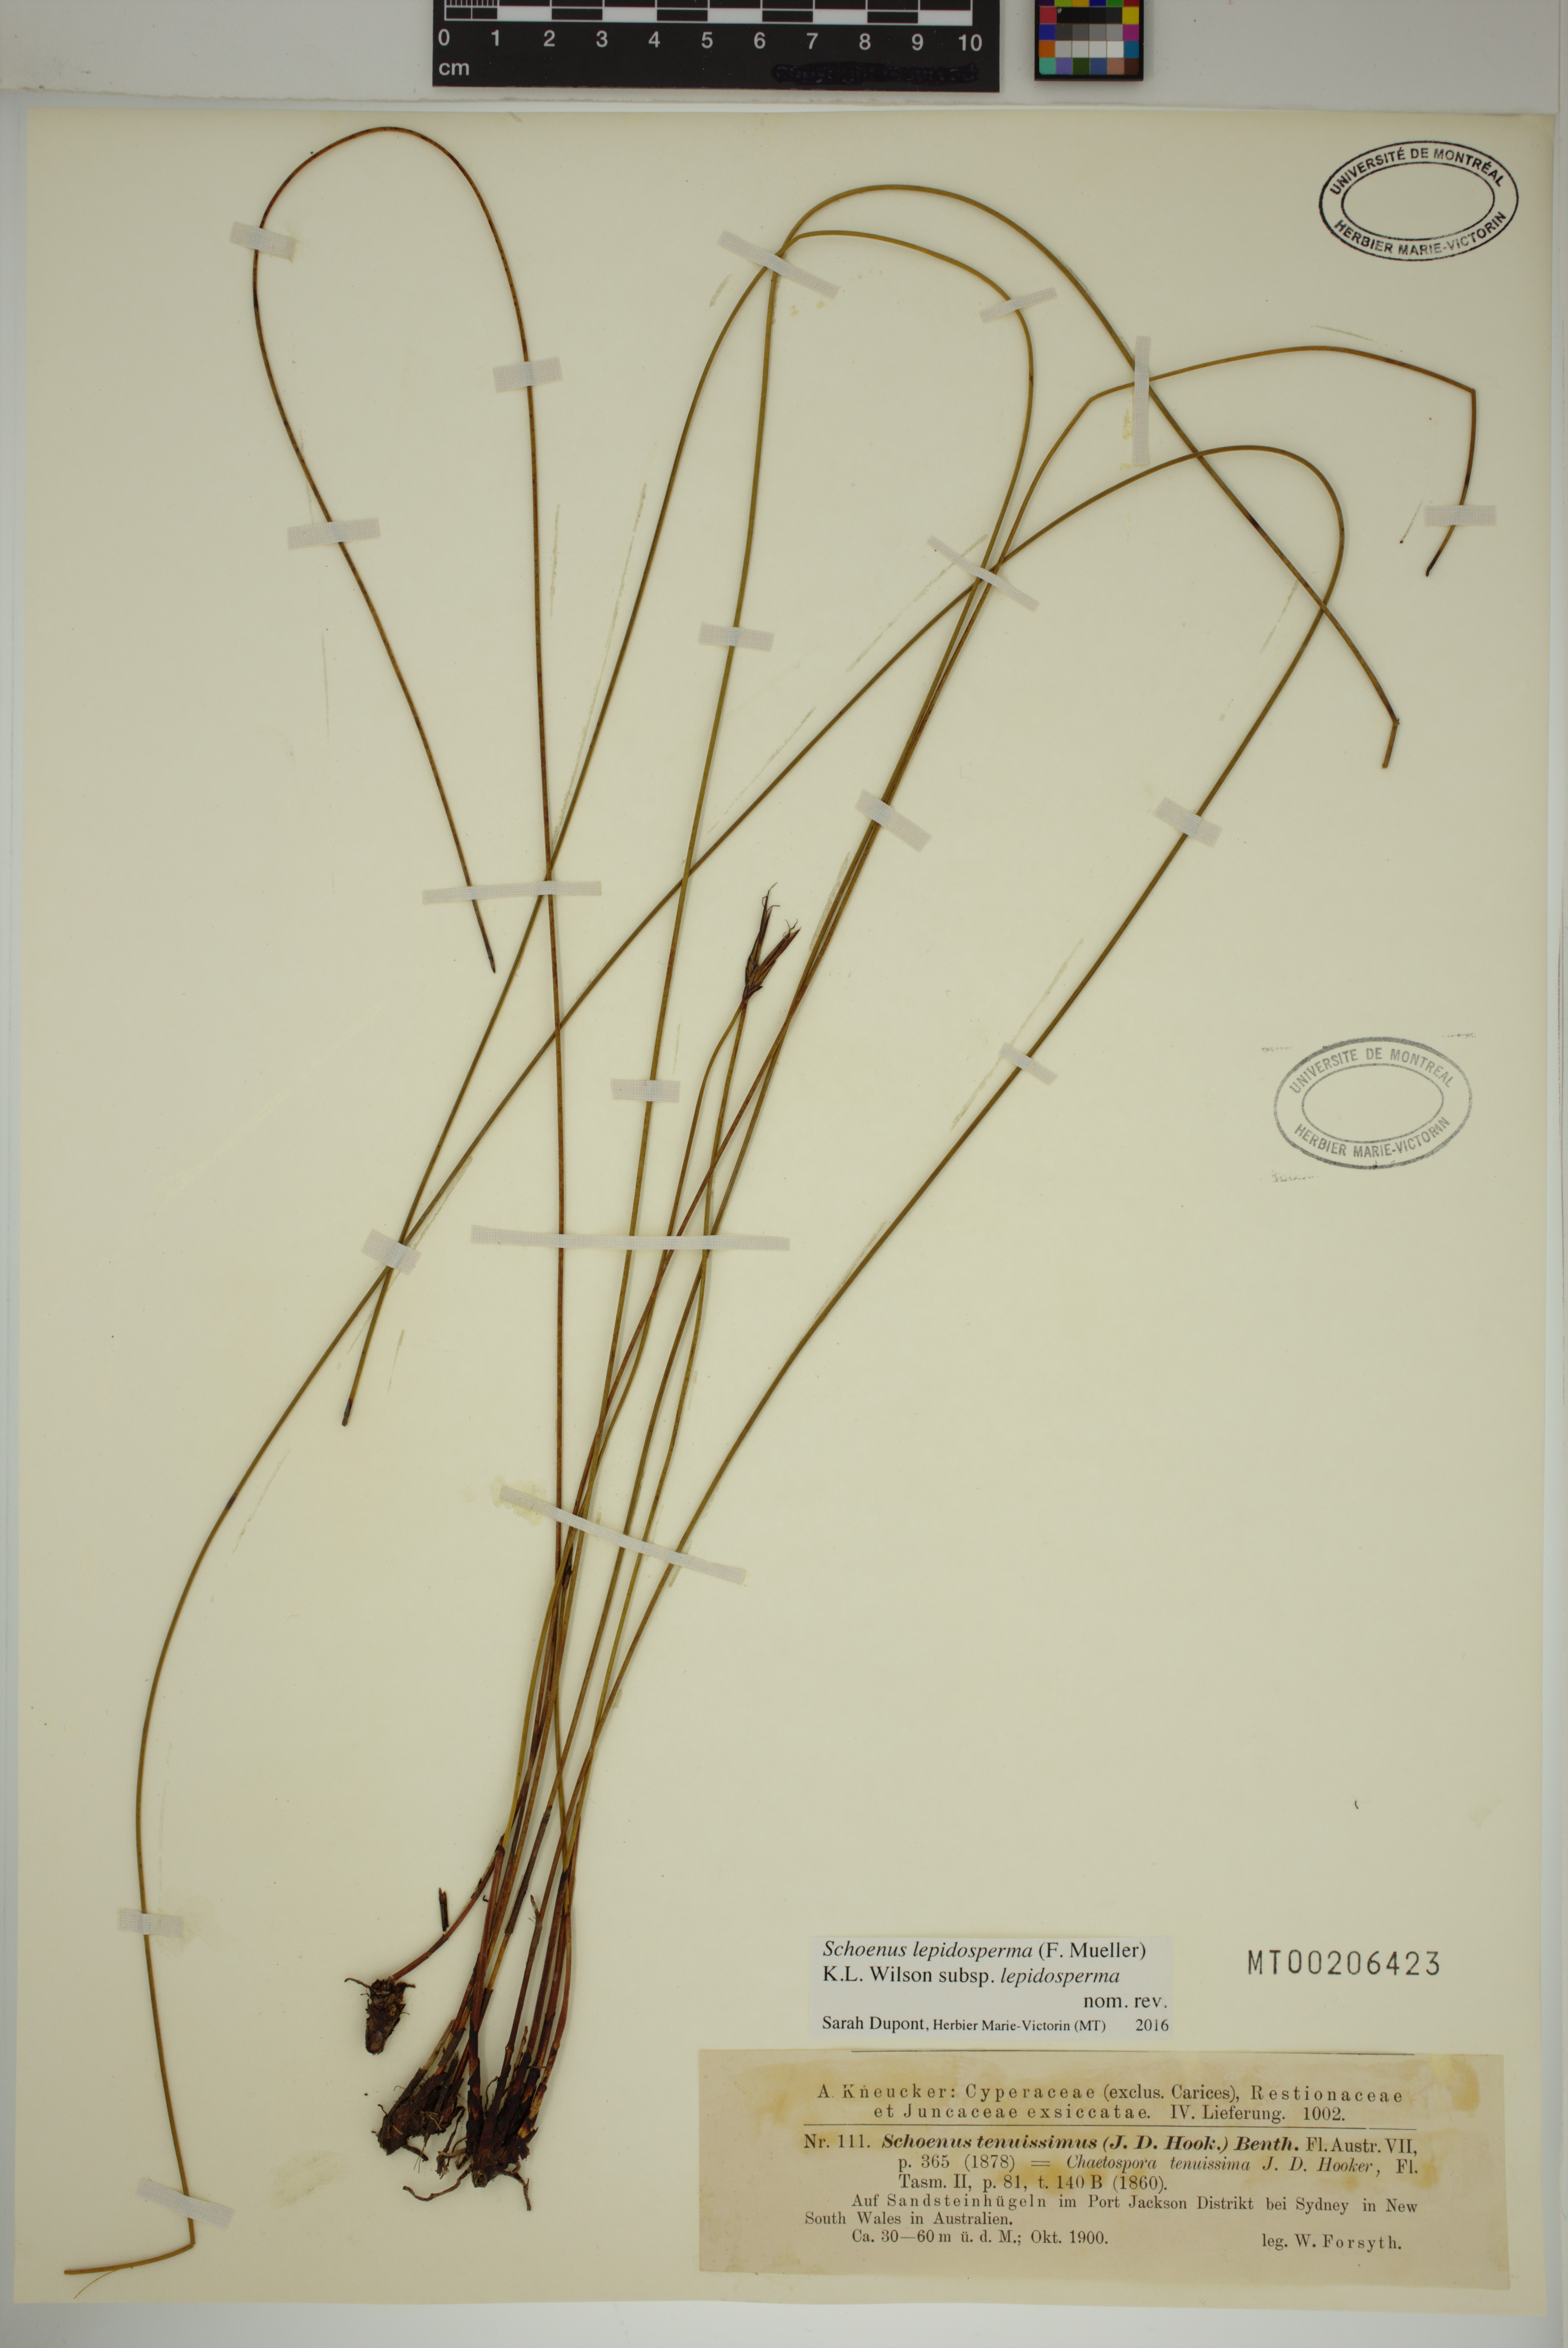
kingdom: Plantae
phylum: Tracheophyta
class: Liliopsida
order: Poales
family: Cyperaceae
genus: Schoenus
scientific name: Schoenus lepidosperma
